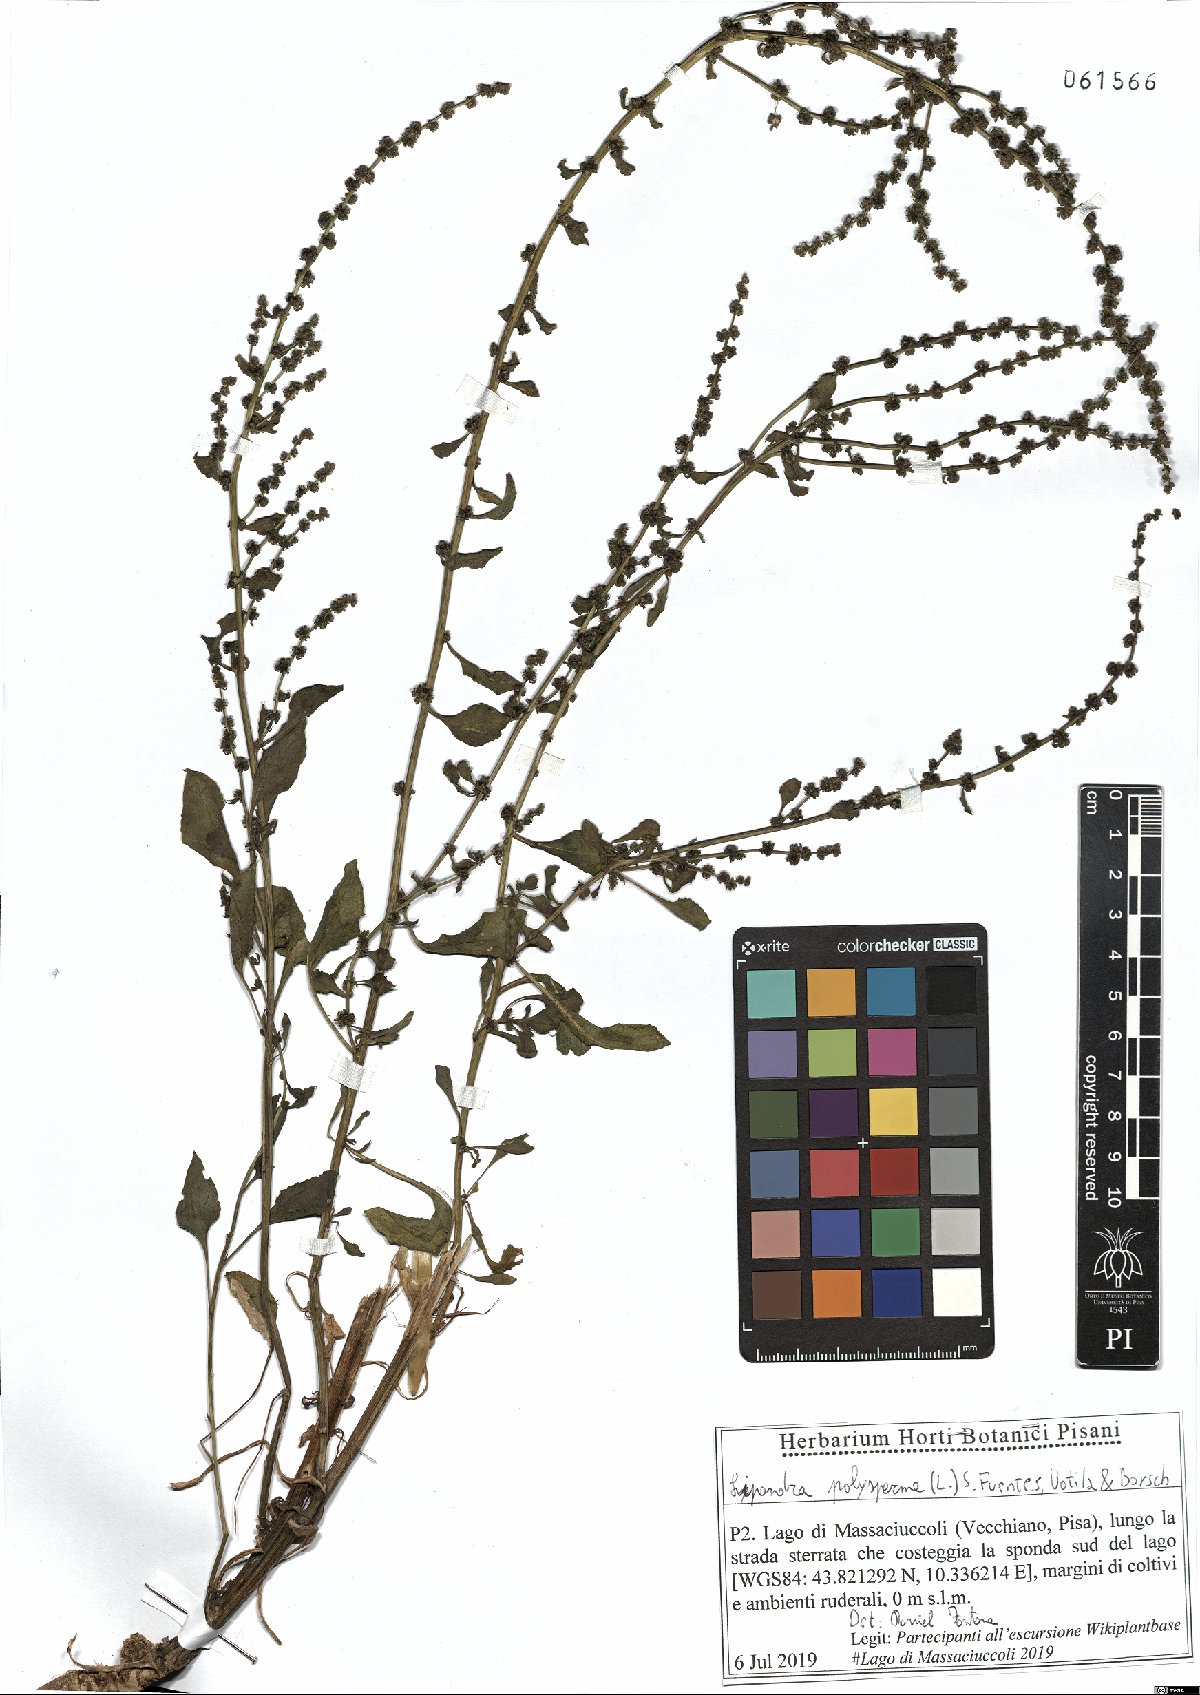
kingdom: Plantae
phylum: Tracheophyta
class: Magnoliopsida
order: Caryophyllales
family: Amaranthaceae
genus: Lipandra
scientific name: Lipandra polysperma
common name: Many-seed goosefoot
